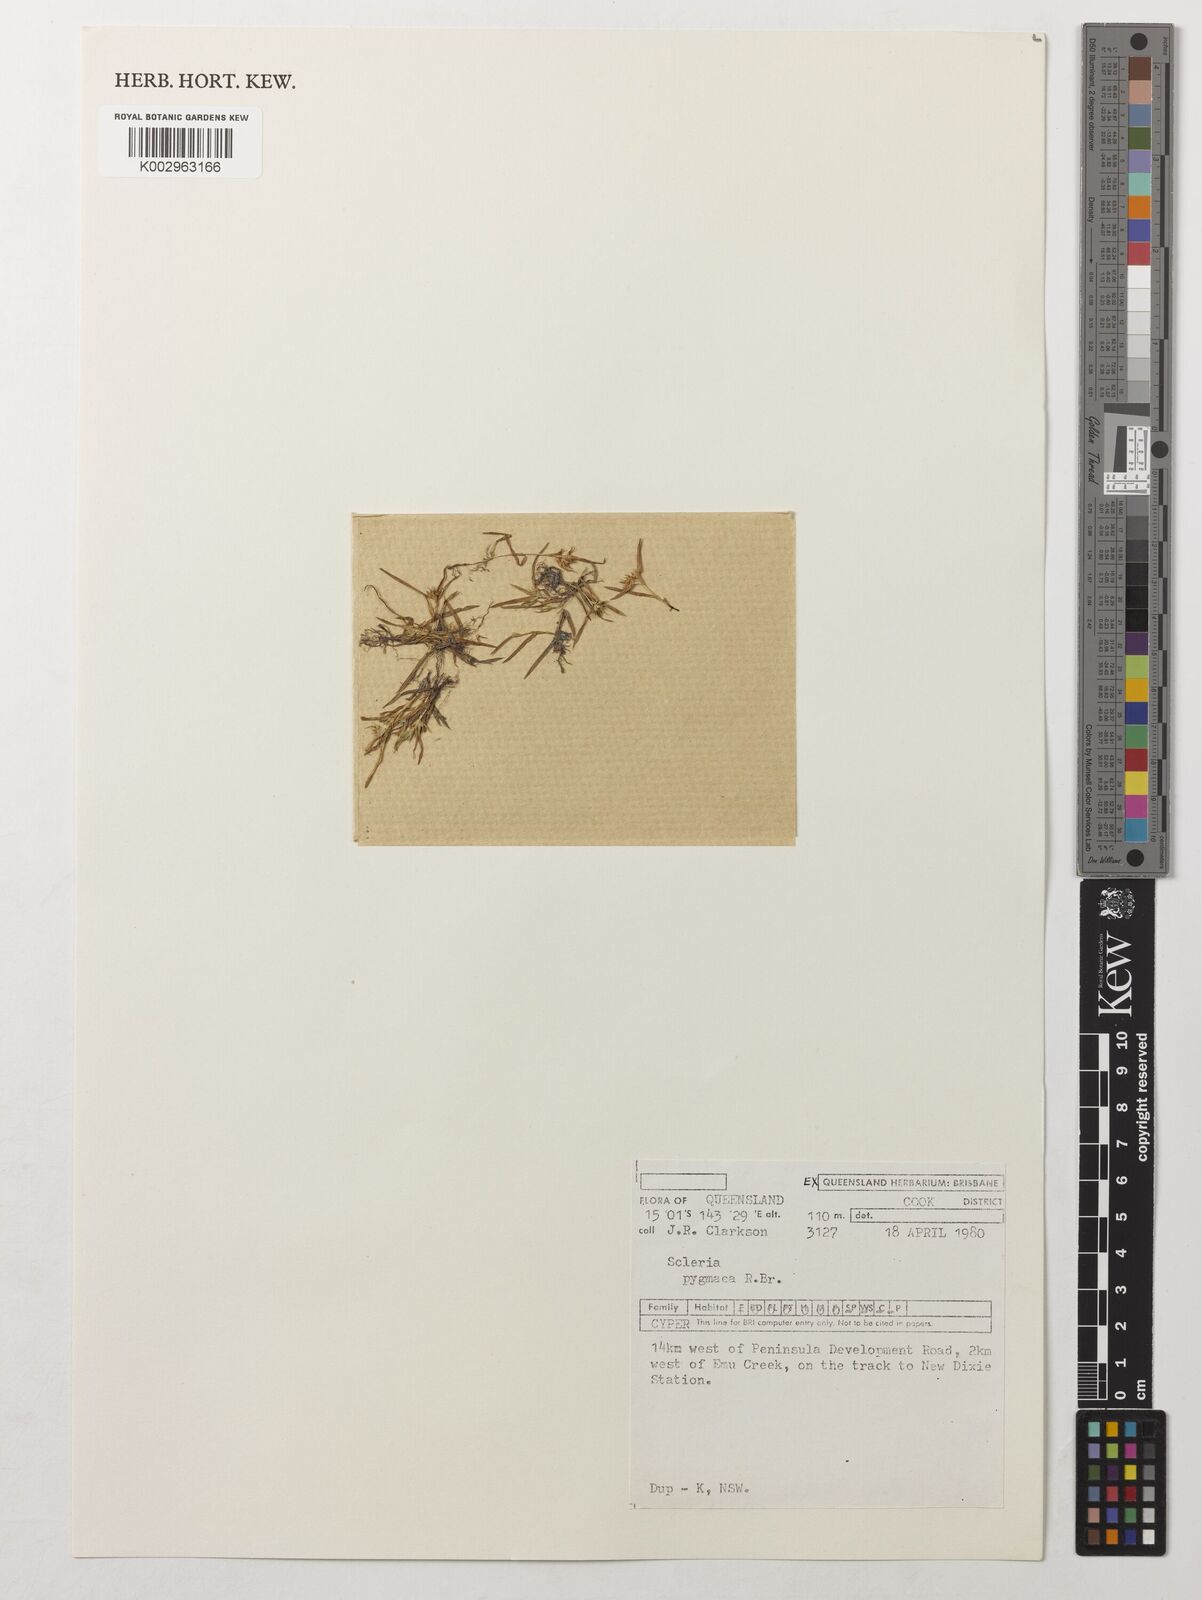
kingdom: Plantae
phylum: Tracheophyta
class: Liliopsida
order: Poales
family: Cyperaceae
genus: Diplacrum
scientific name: Diplacrum pygmaeum
